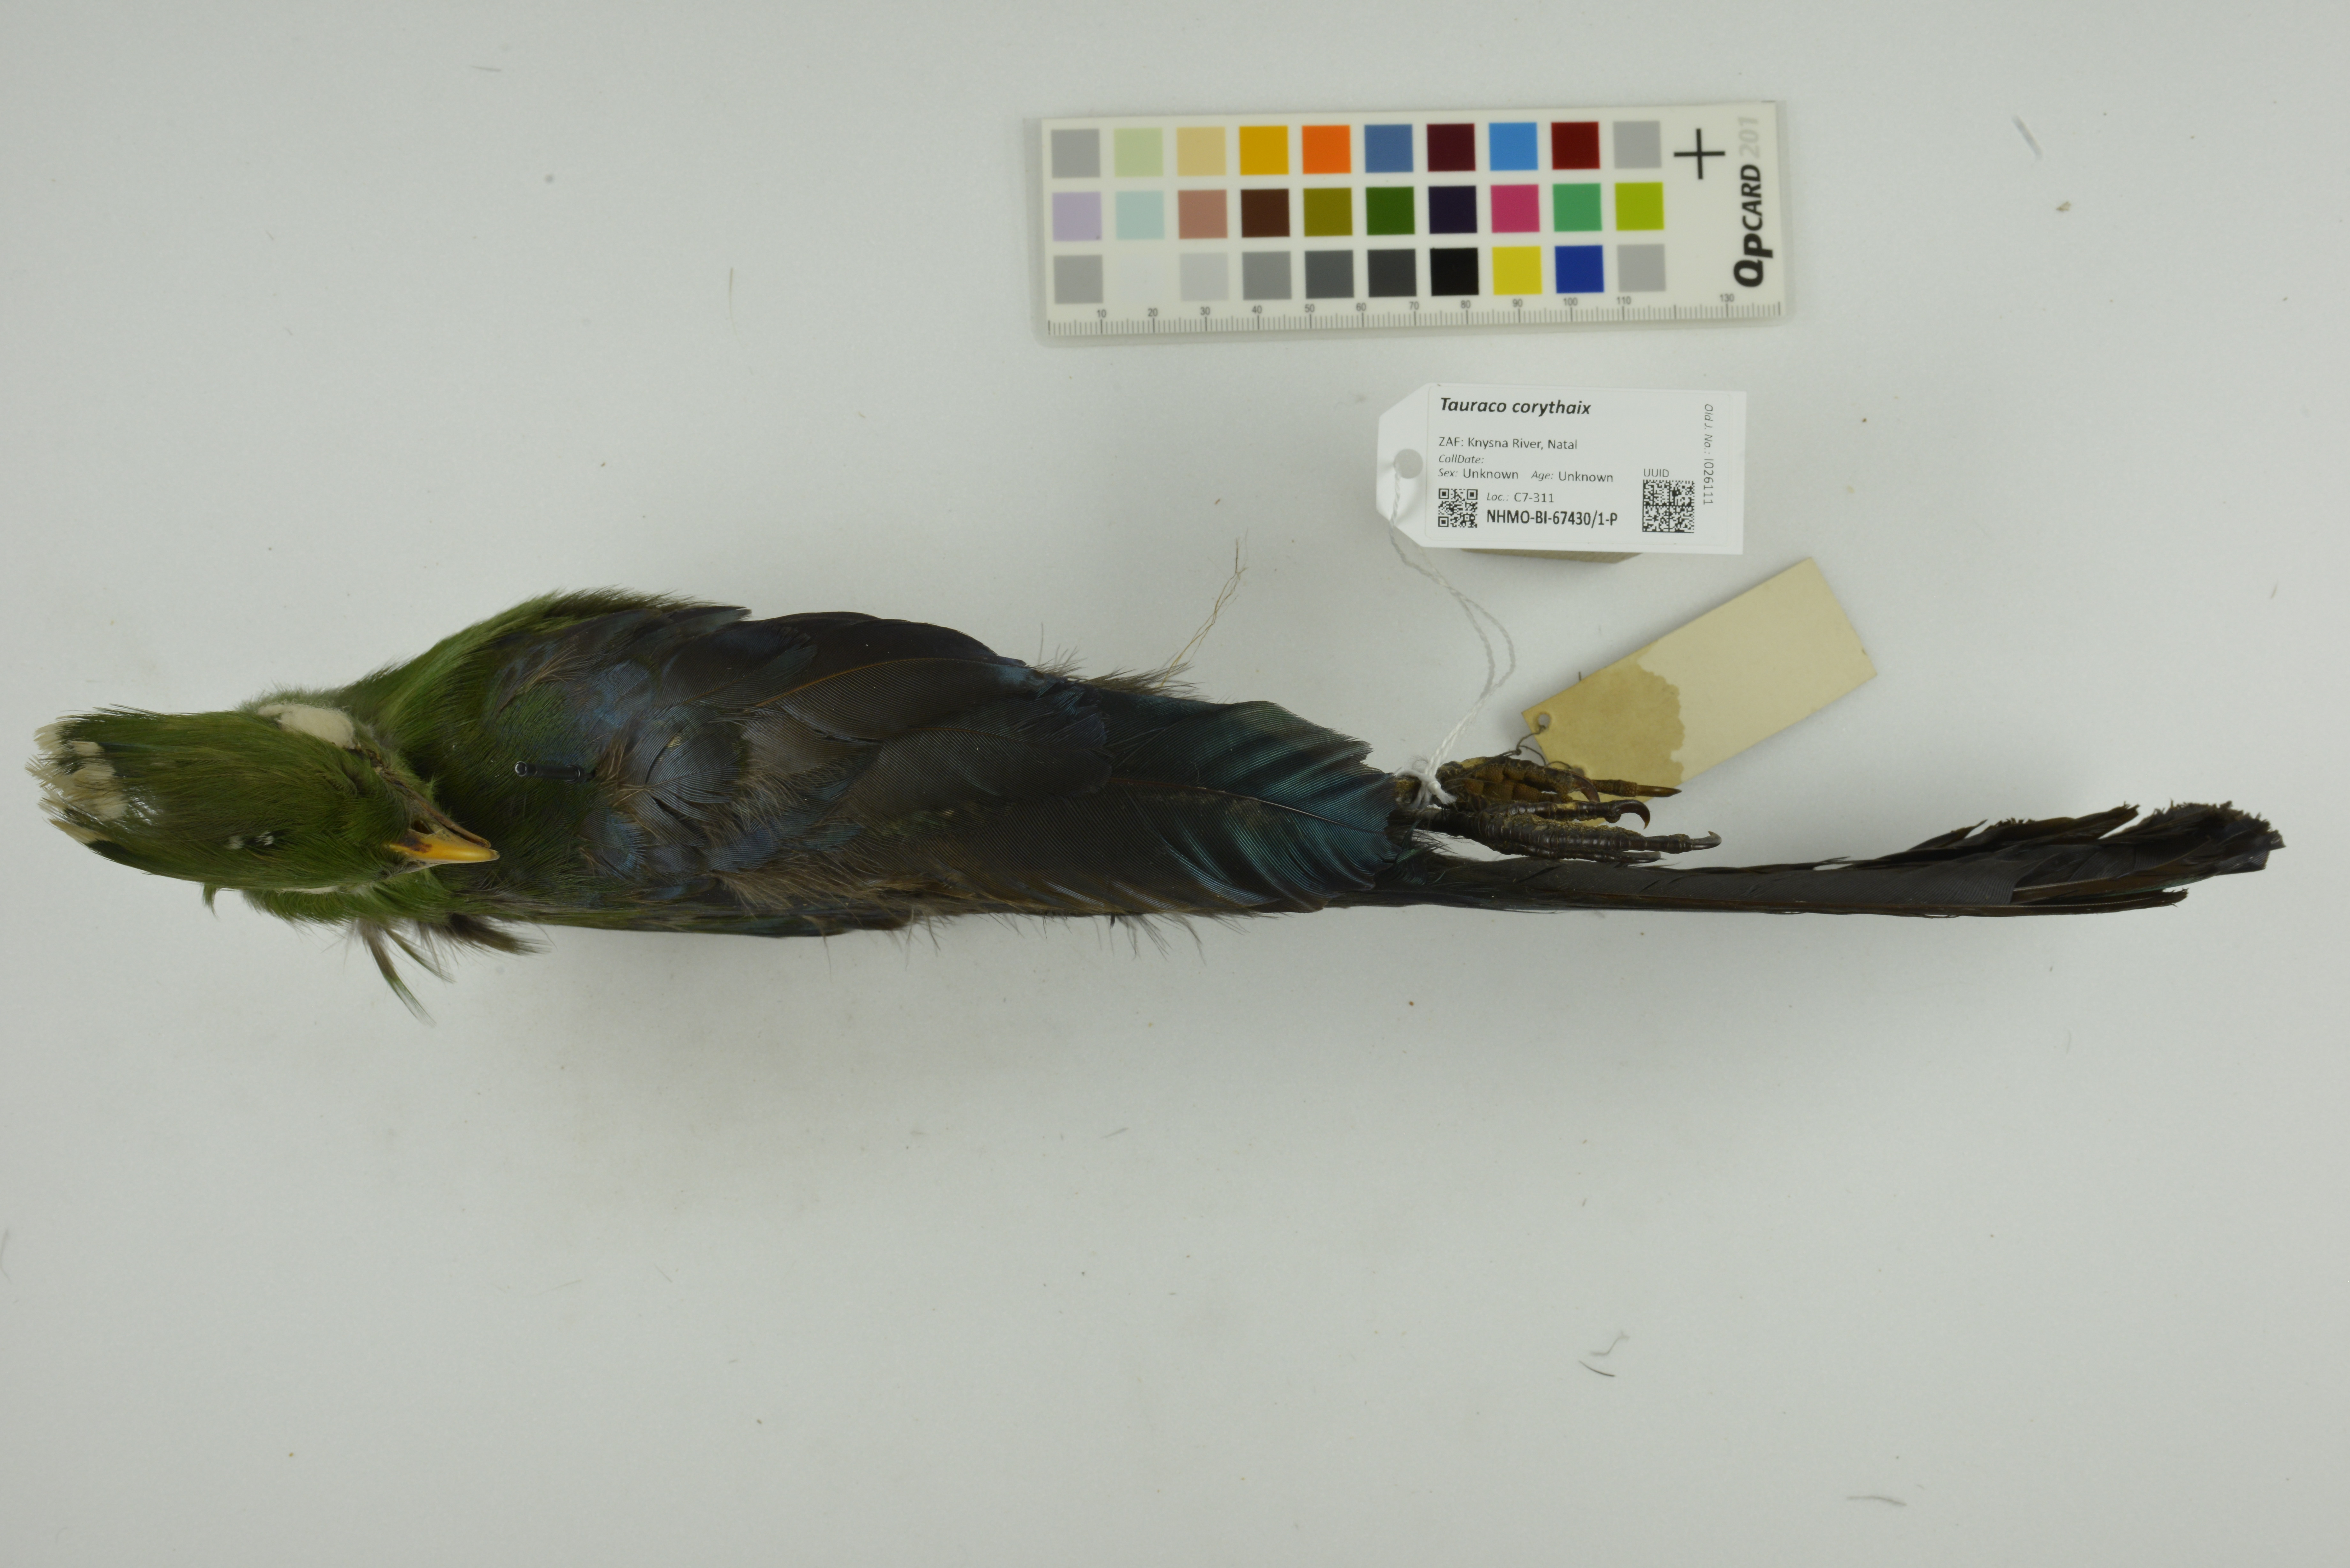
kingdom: Animalia
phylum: Chordata
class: Aves
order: Musophagiformes
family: Musophagidae
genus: Tauraco
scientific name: Tauraco corythaix
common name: Knysna turaco
